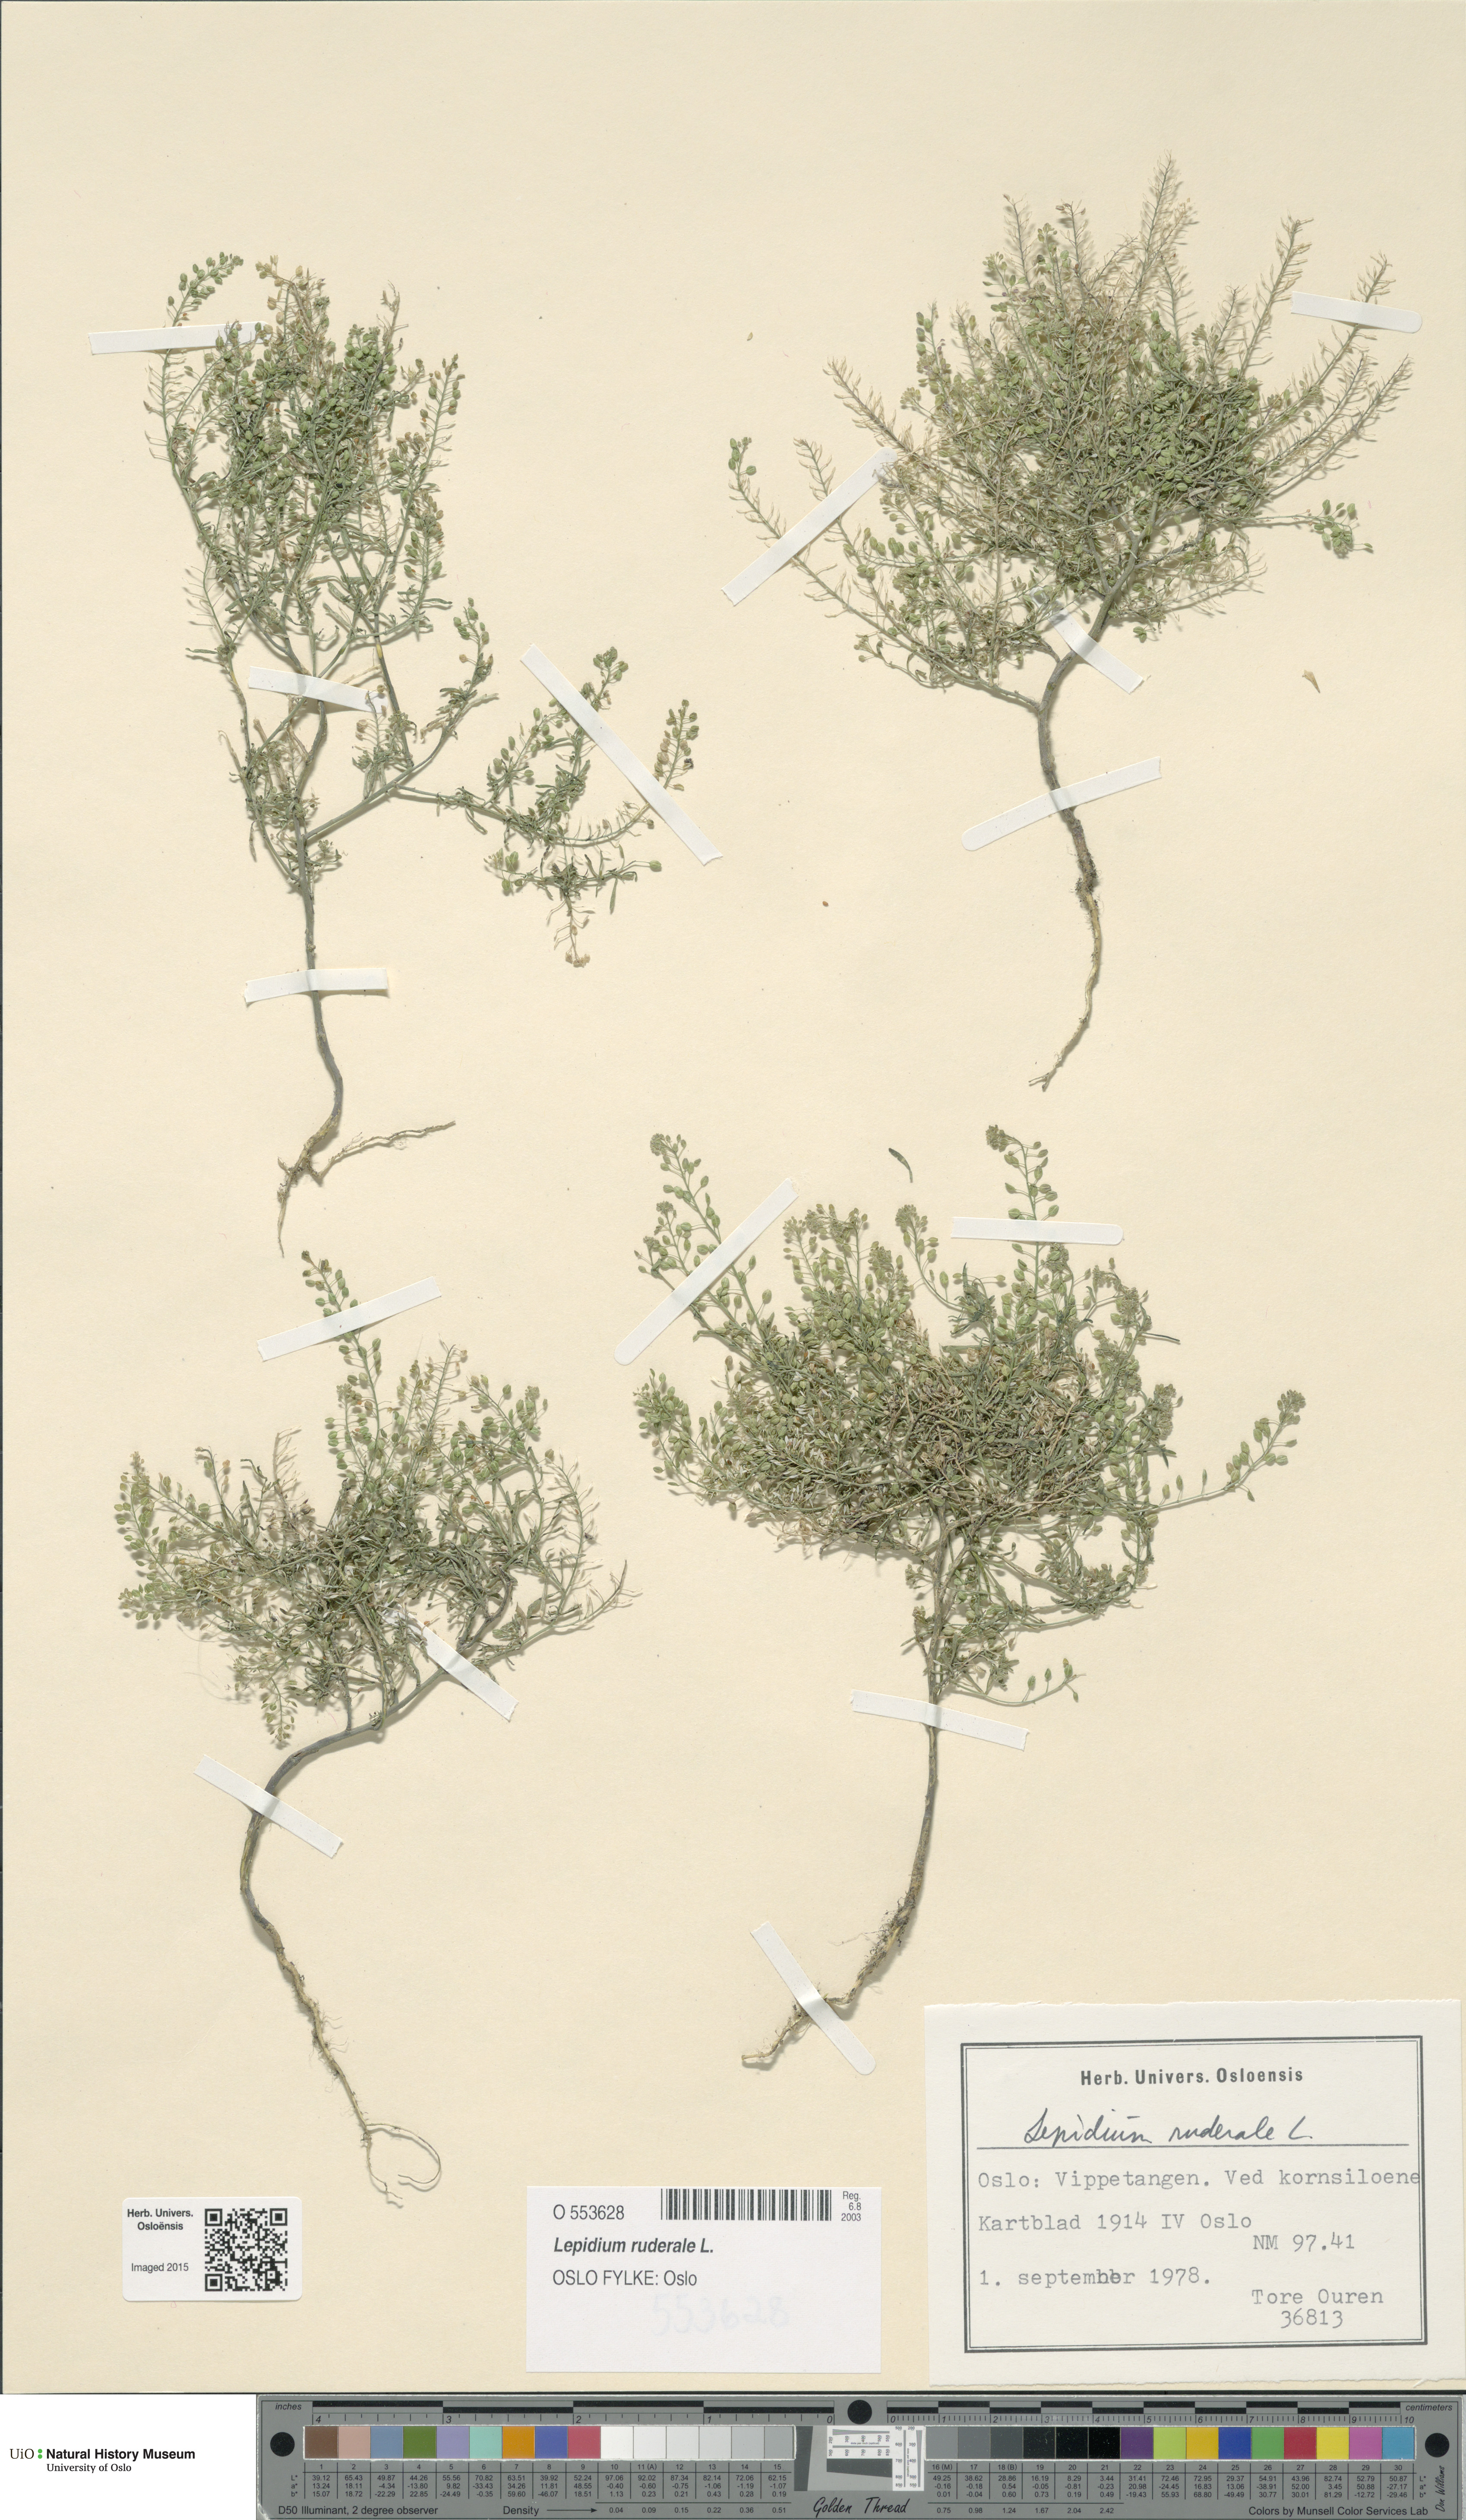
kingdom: Plantae
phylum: Tracheophyta
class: Magnoliopsida
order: Brassicales
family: Brassicaceae
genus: Lepidium
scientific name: Lepidium ruderale
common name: Narrow-leaved pepperwort
